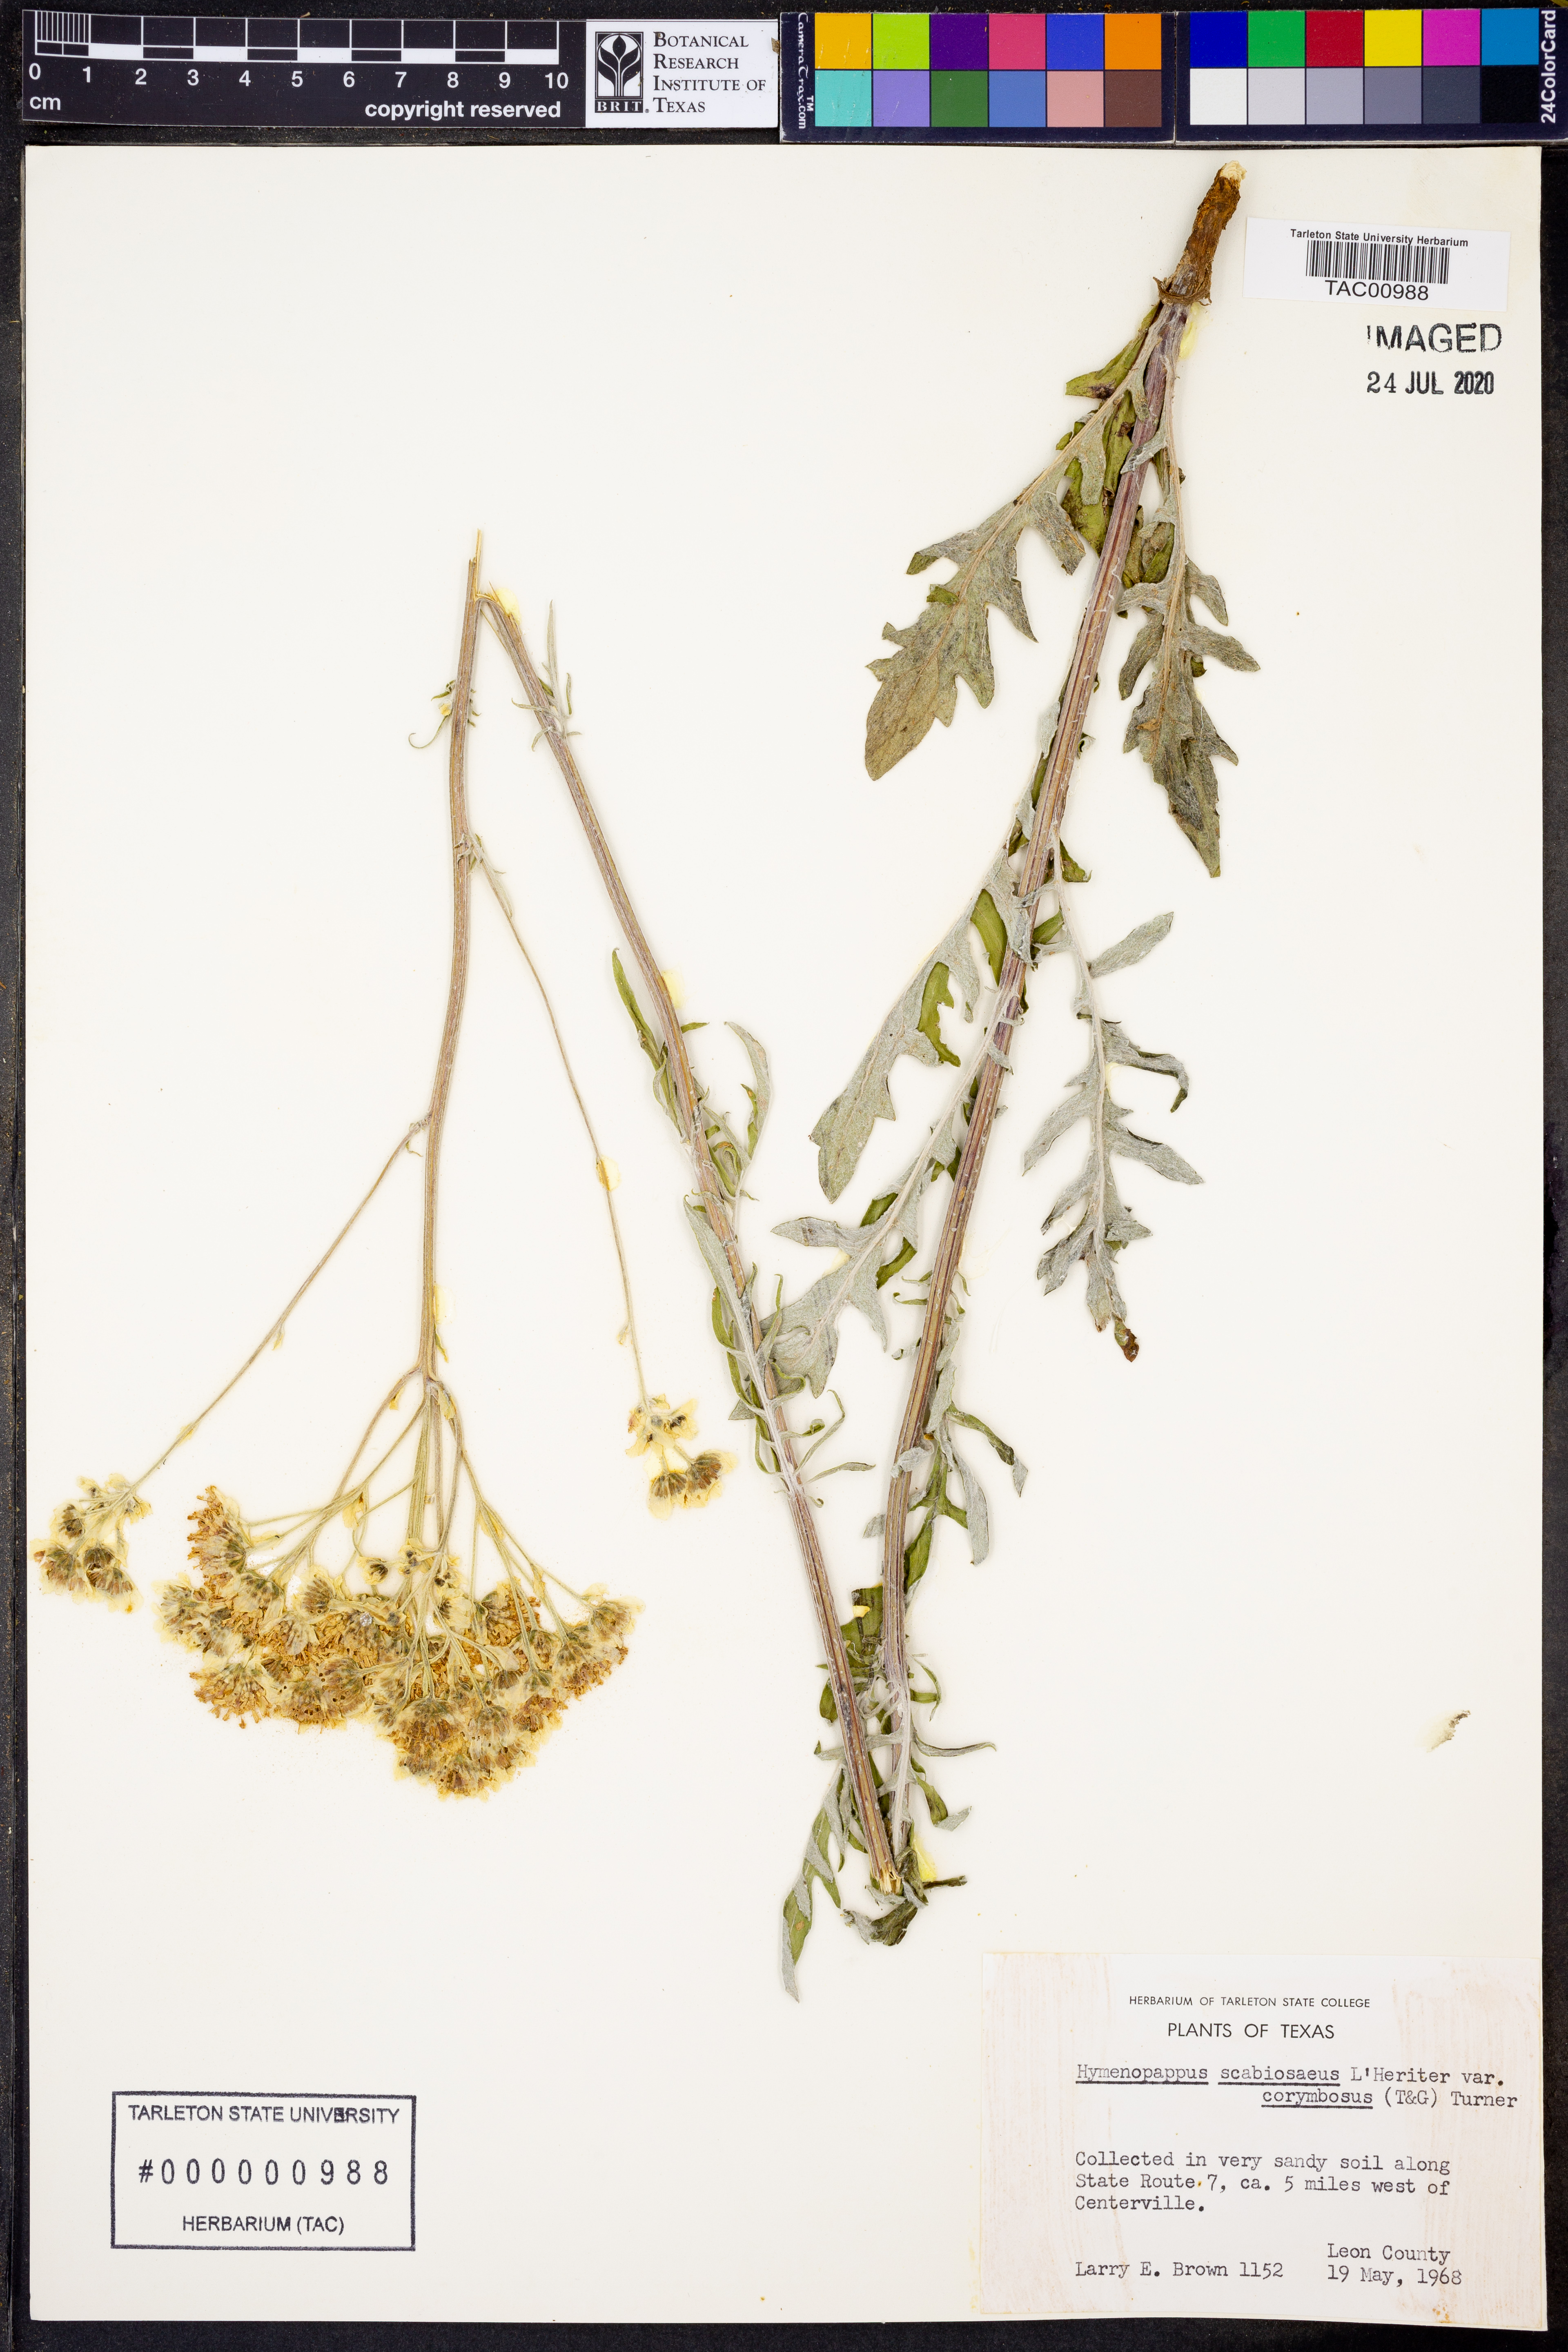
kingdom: Plantae
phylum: Tracheophyta
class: Magnoliopsida
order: Asterales
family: Asteraceae
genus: Hymenopappus
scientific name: Hymenopappus scabiosaeus
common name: Carolina woollywhite
